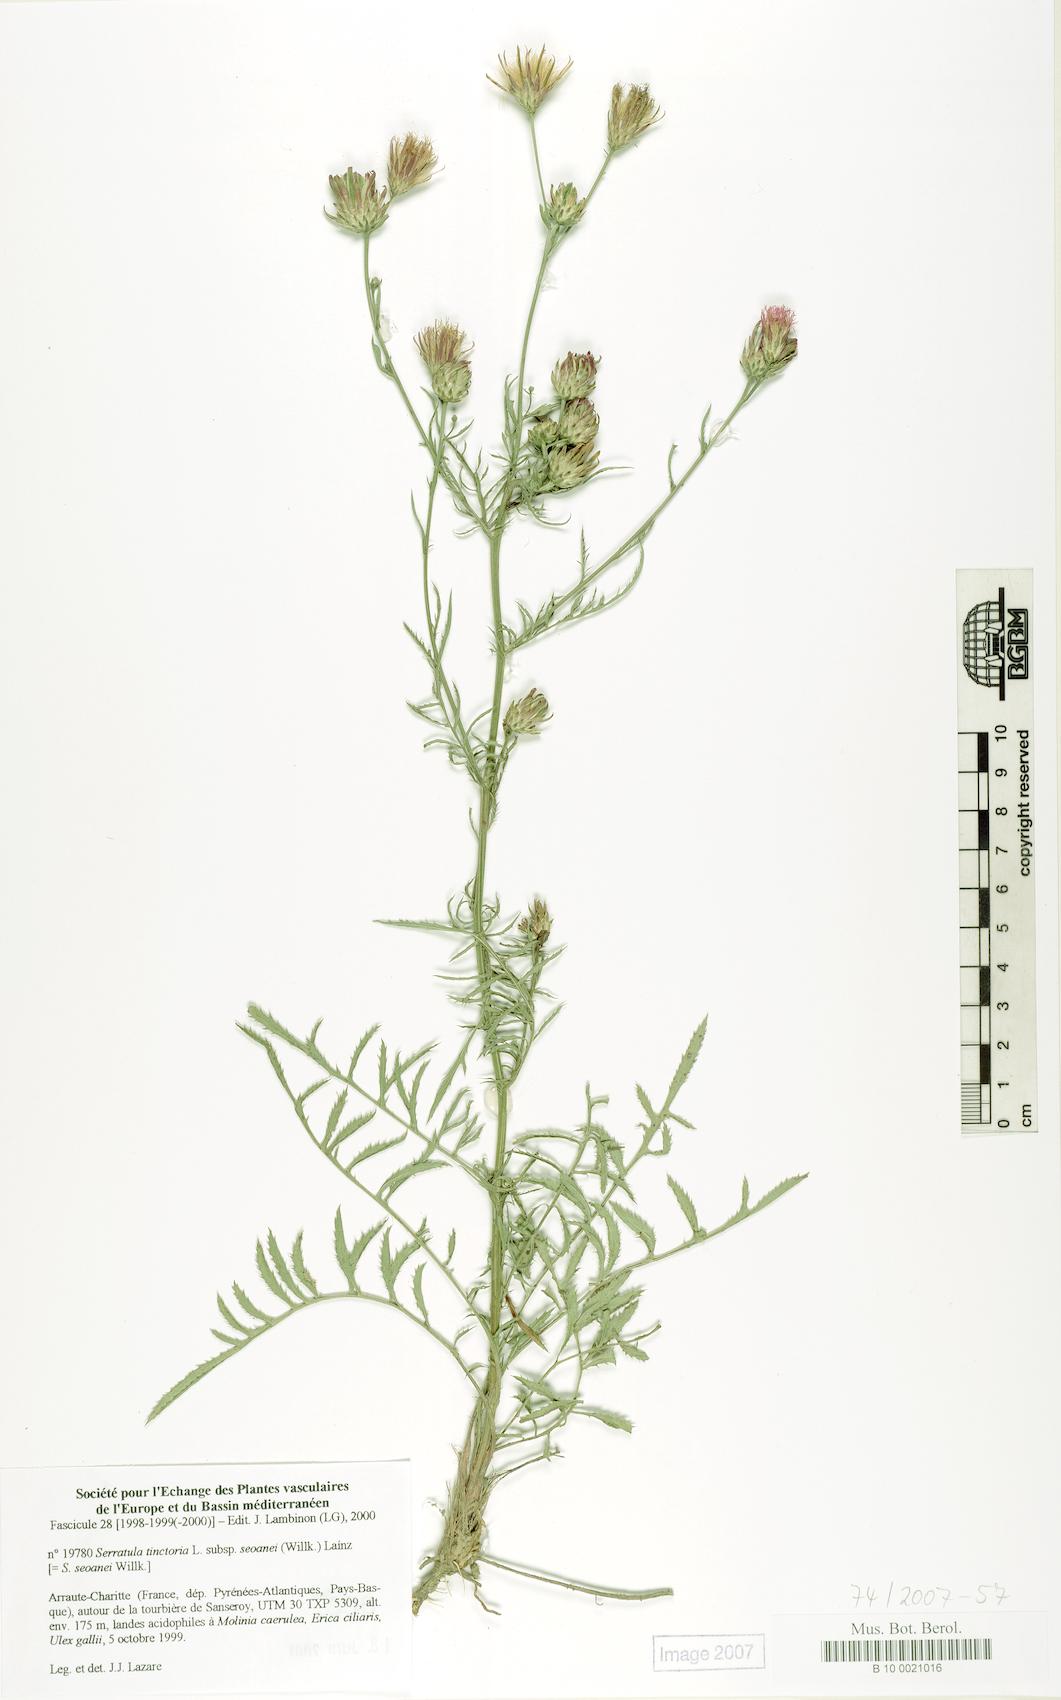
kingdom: Plantae
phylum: Tracheophyta
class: Magnoliopsida
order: Asterales
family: Asteraceae
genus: Serratula
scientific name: Serratula tinctoria
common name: Saw-wort
